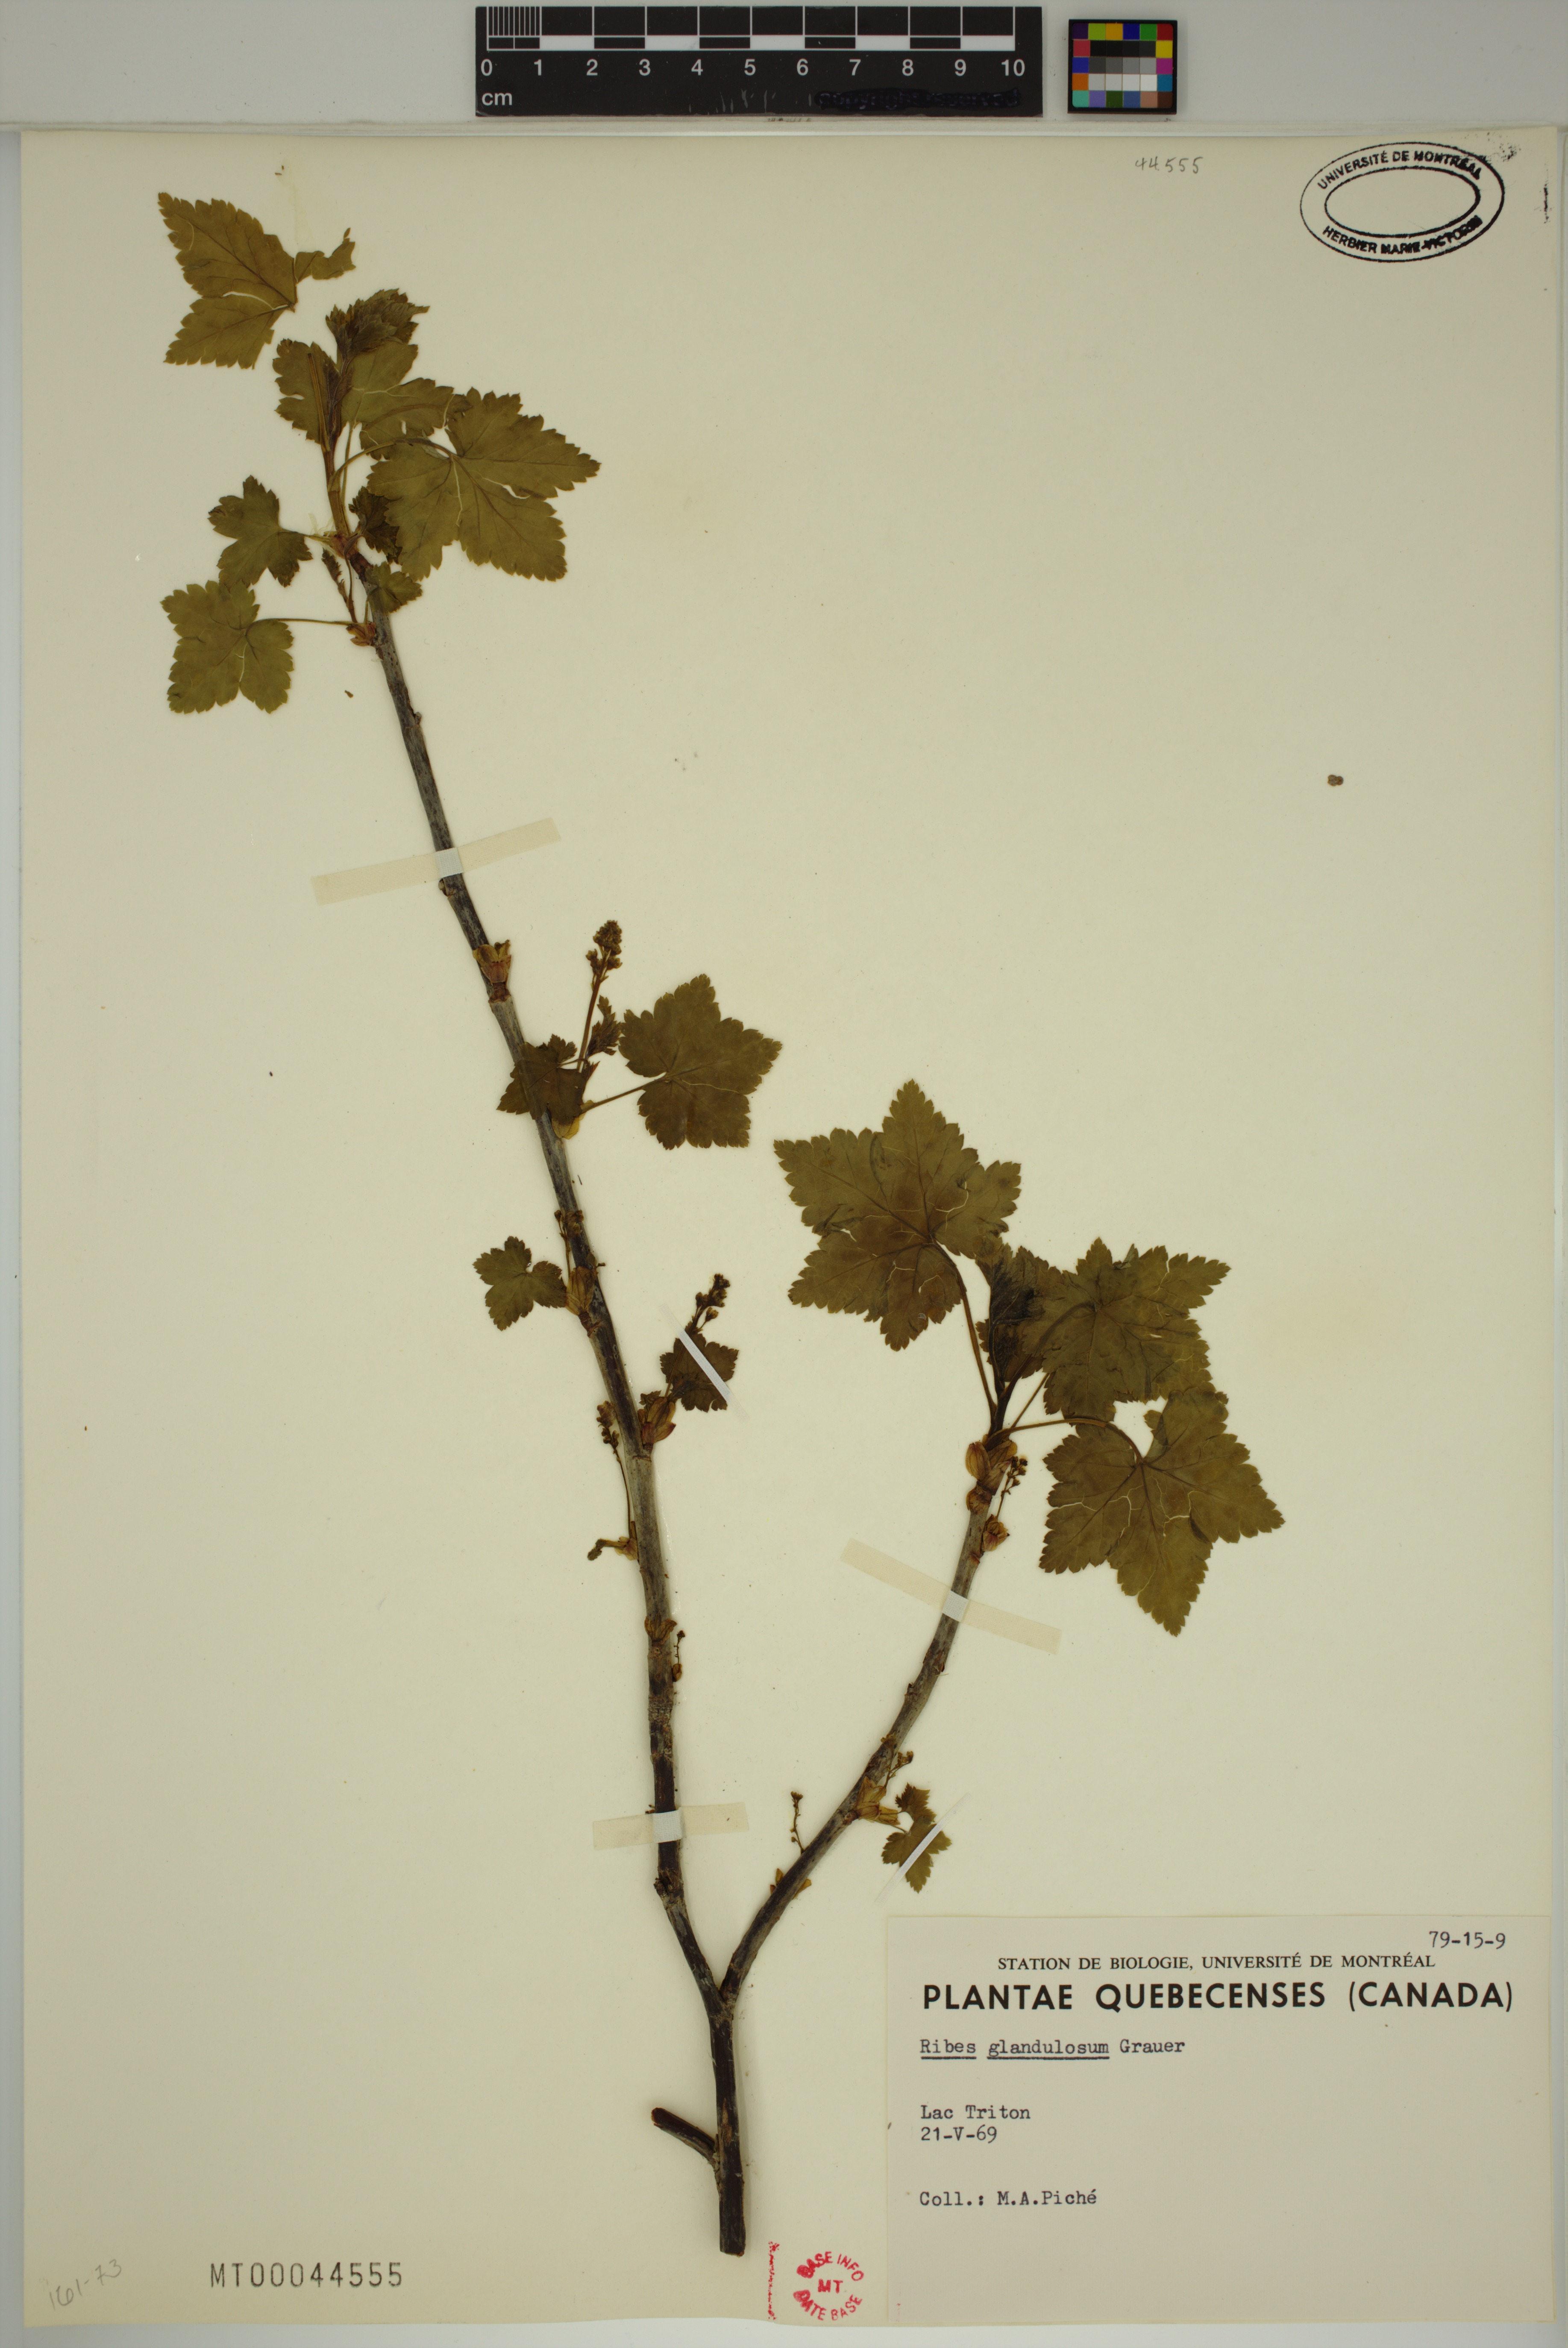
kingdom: Plantae
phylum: Tracheophyta
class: Magnoliopsida
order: Saxifragales
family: Grossulariaceae
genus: Ribes
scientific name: Ribes glandulosum
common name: Skunk currant
